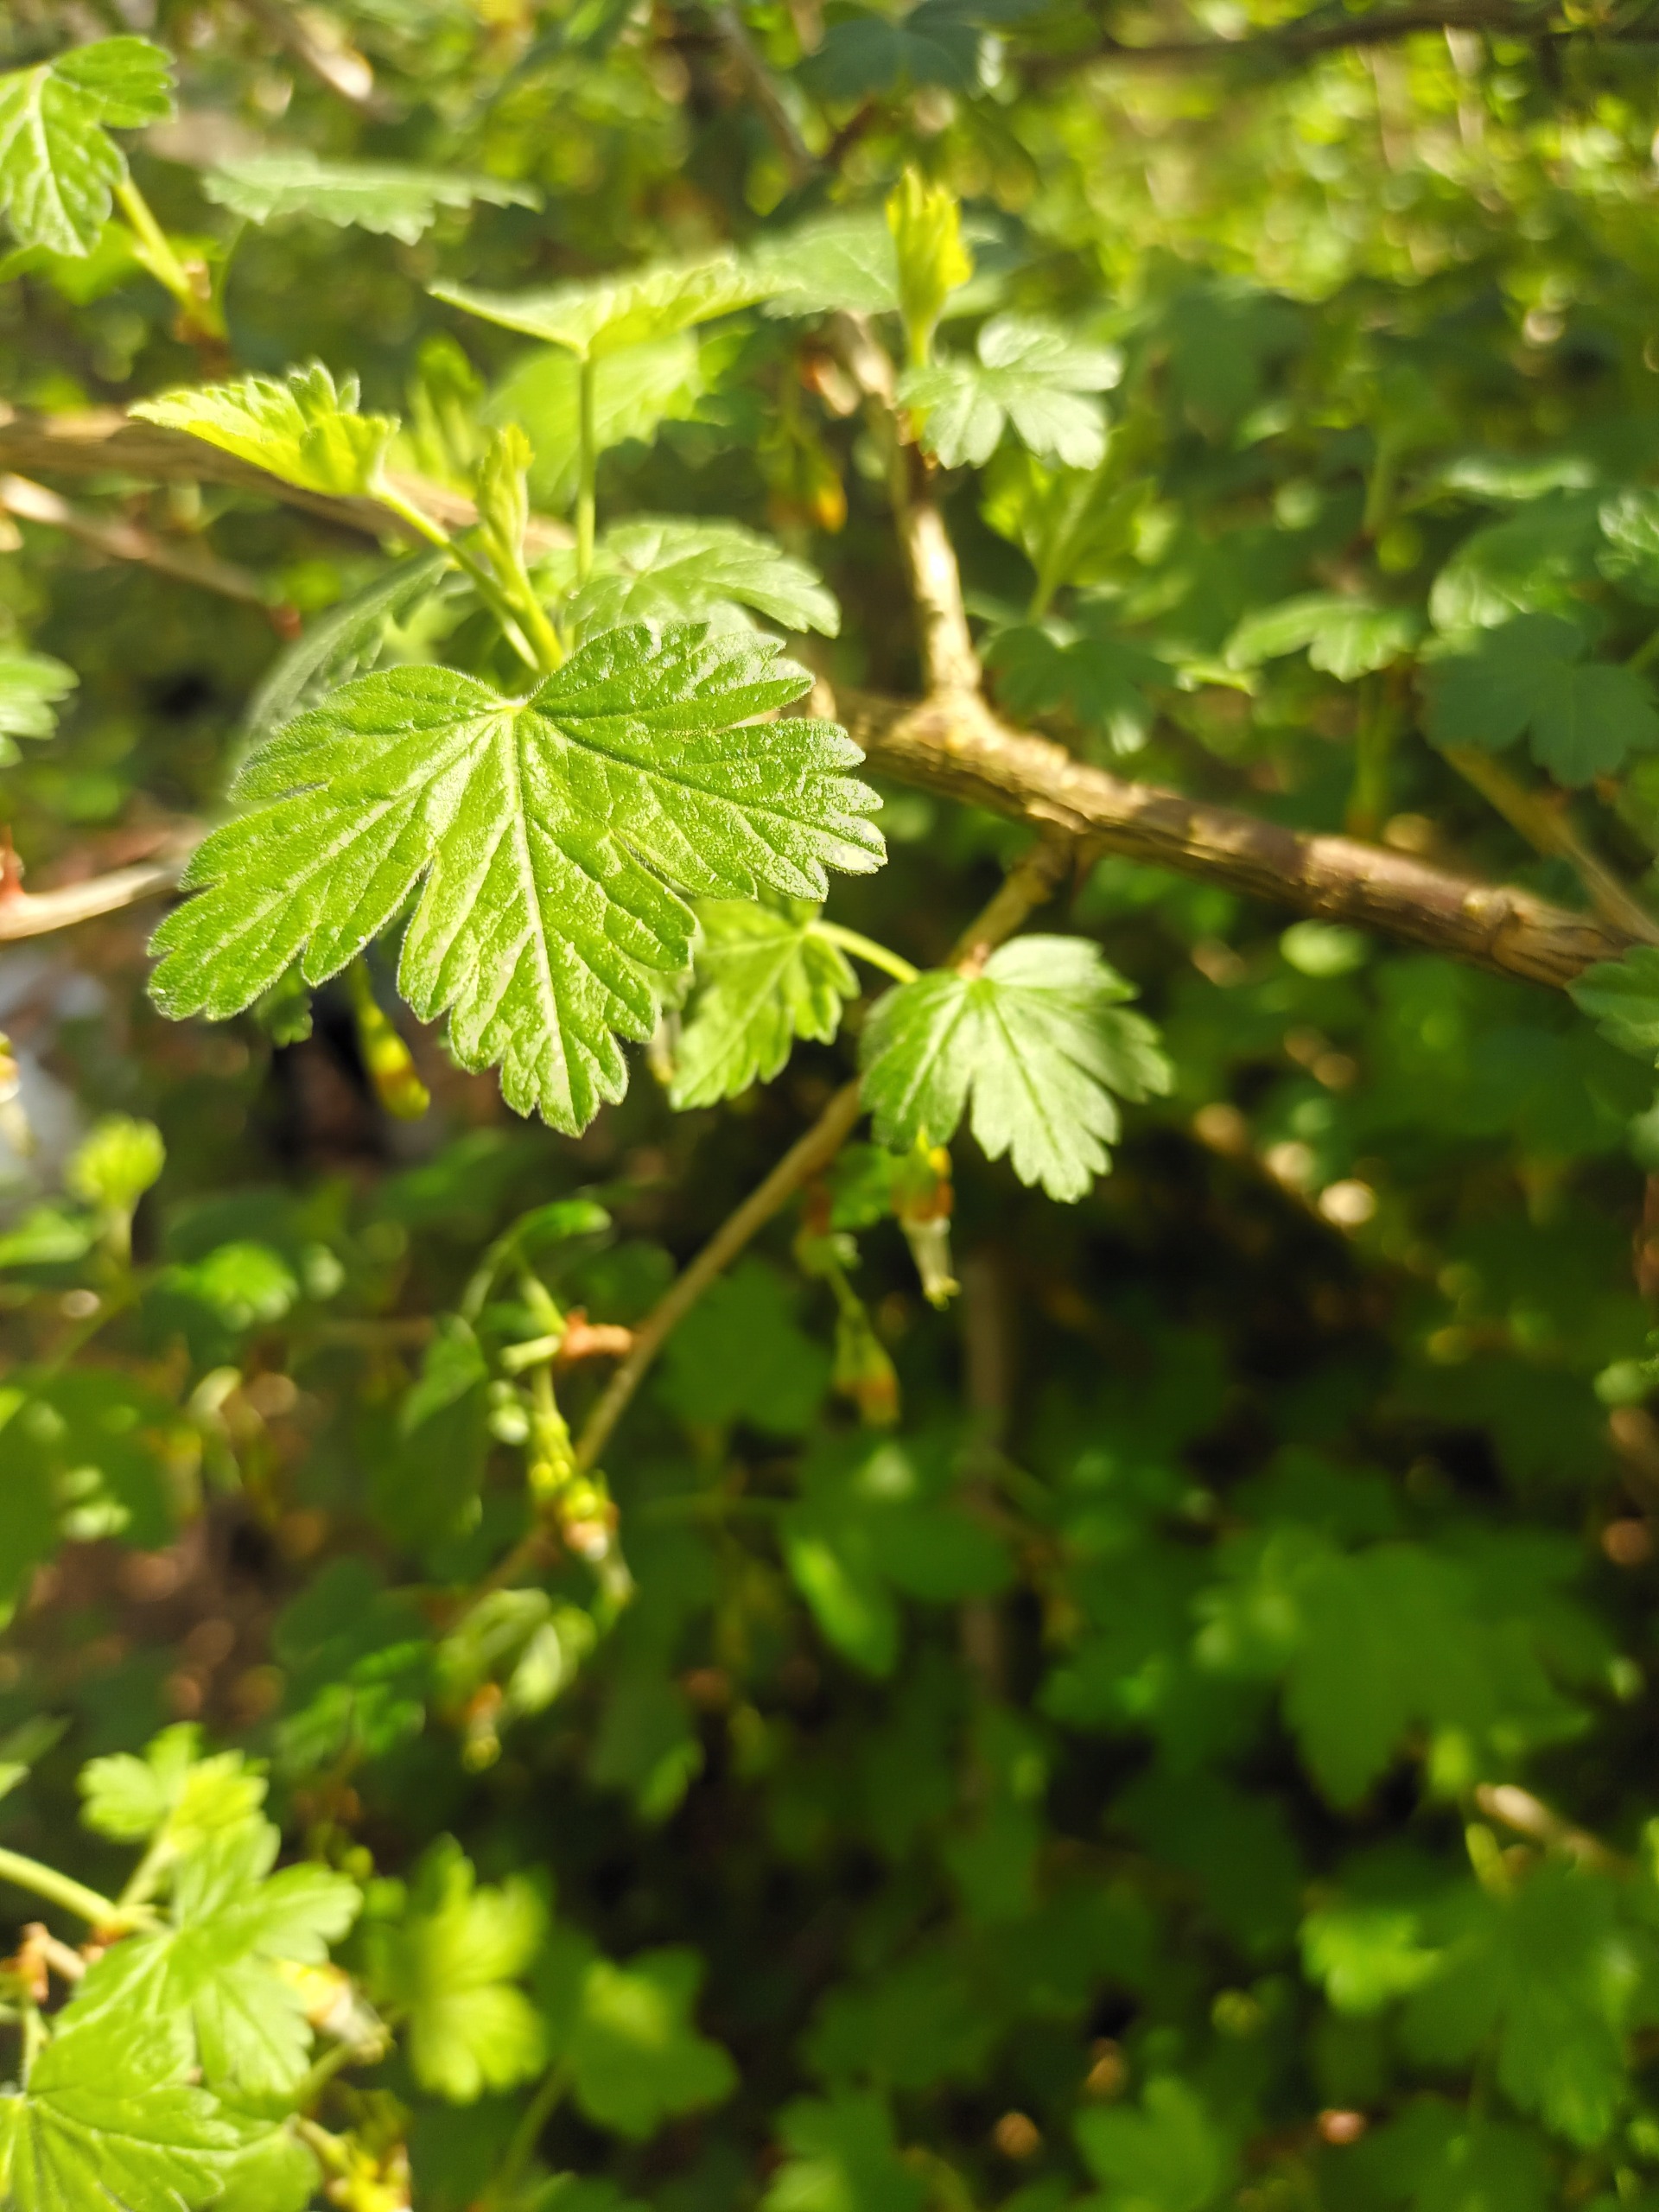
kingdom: Plantae
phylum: Tracheophyta
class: Magnoliopsida
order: Saxifragales
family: Grossulariaceae
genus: Ribes
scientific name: Ribes divaricatum
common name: Oregonstikkelsbær
